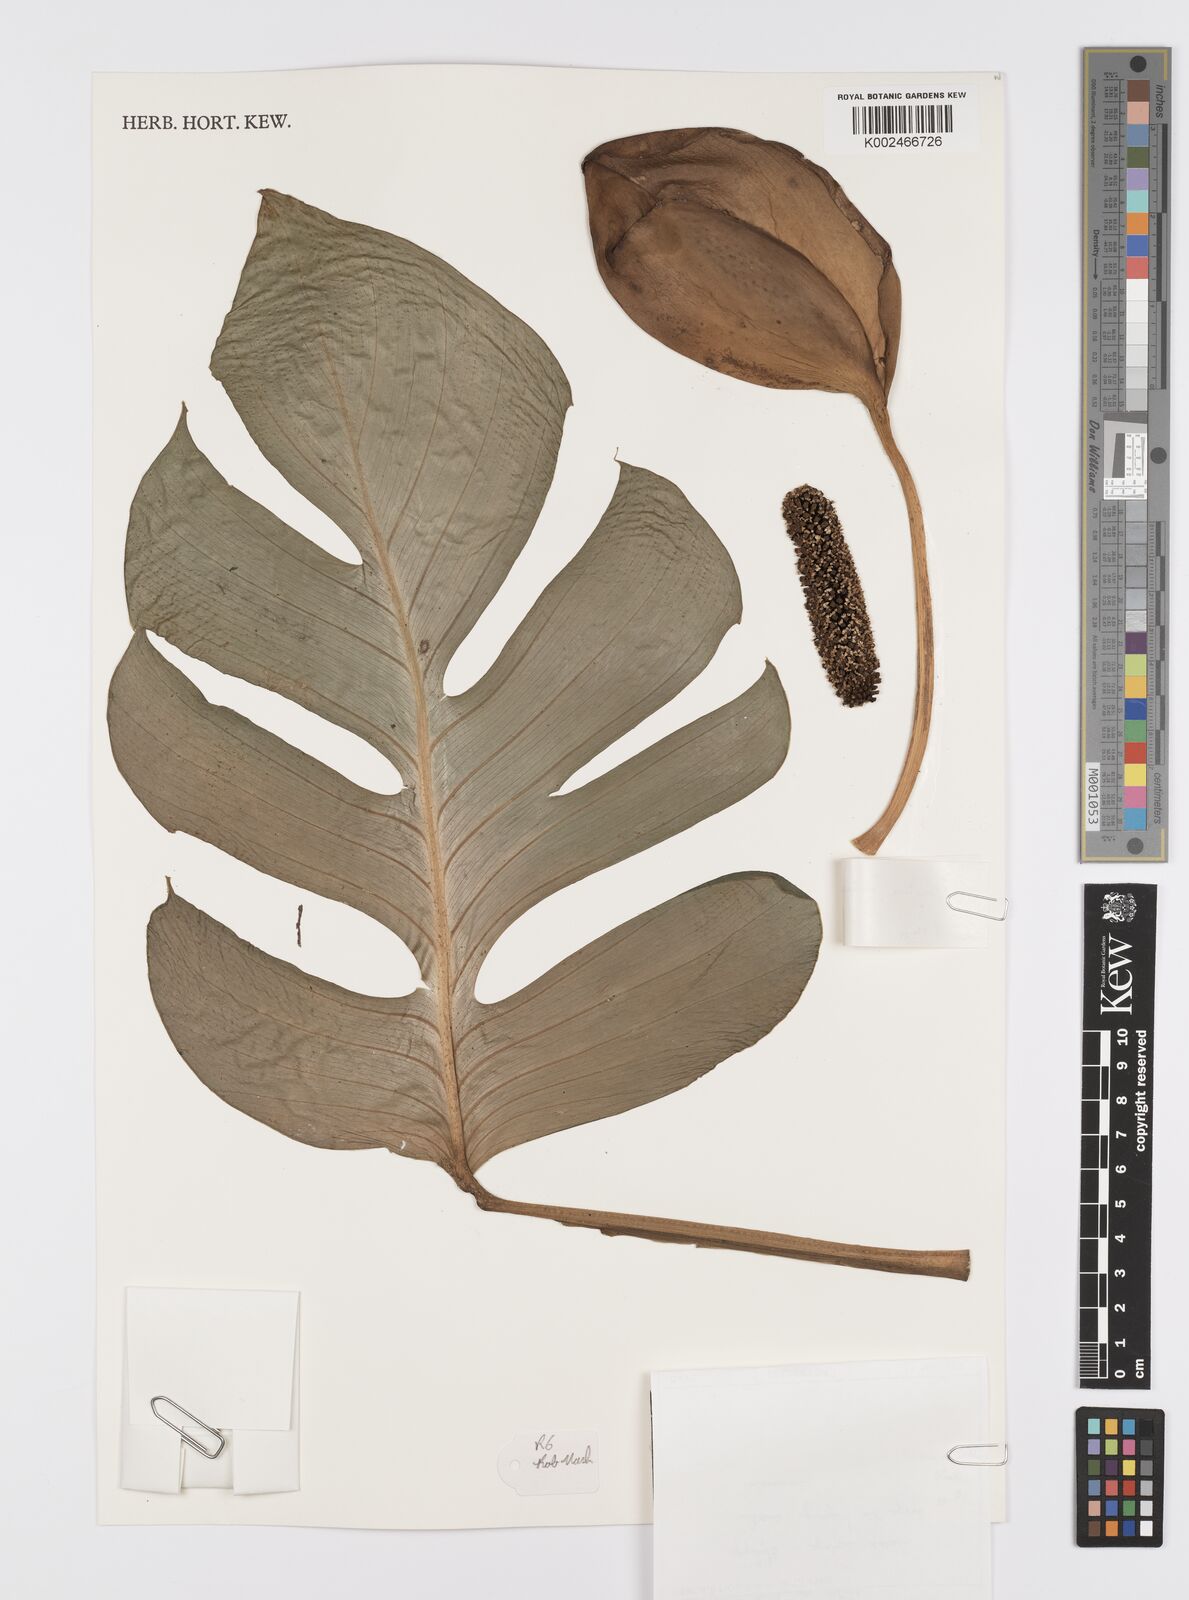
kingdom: Plantae
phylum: Tracheophyta
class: Liliopsida
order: Alismatales
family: Araceae
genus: Monstera
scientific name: Monstera dissecta
